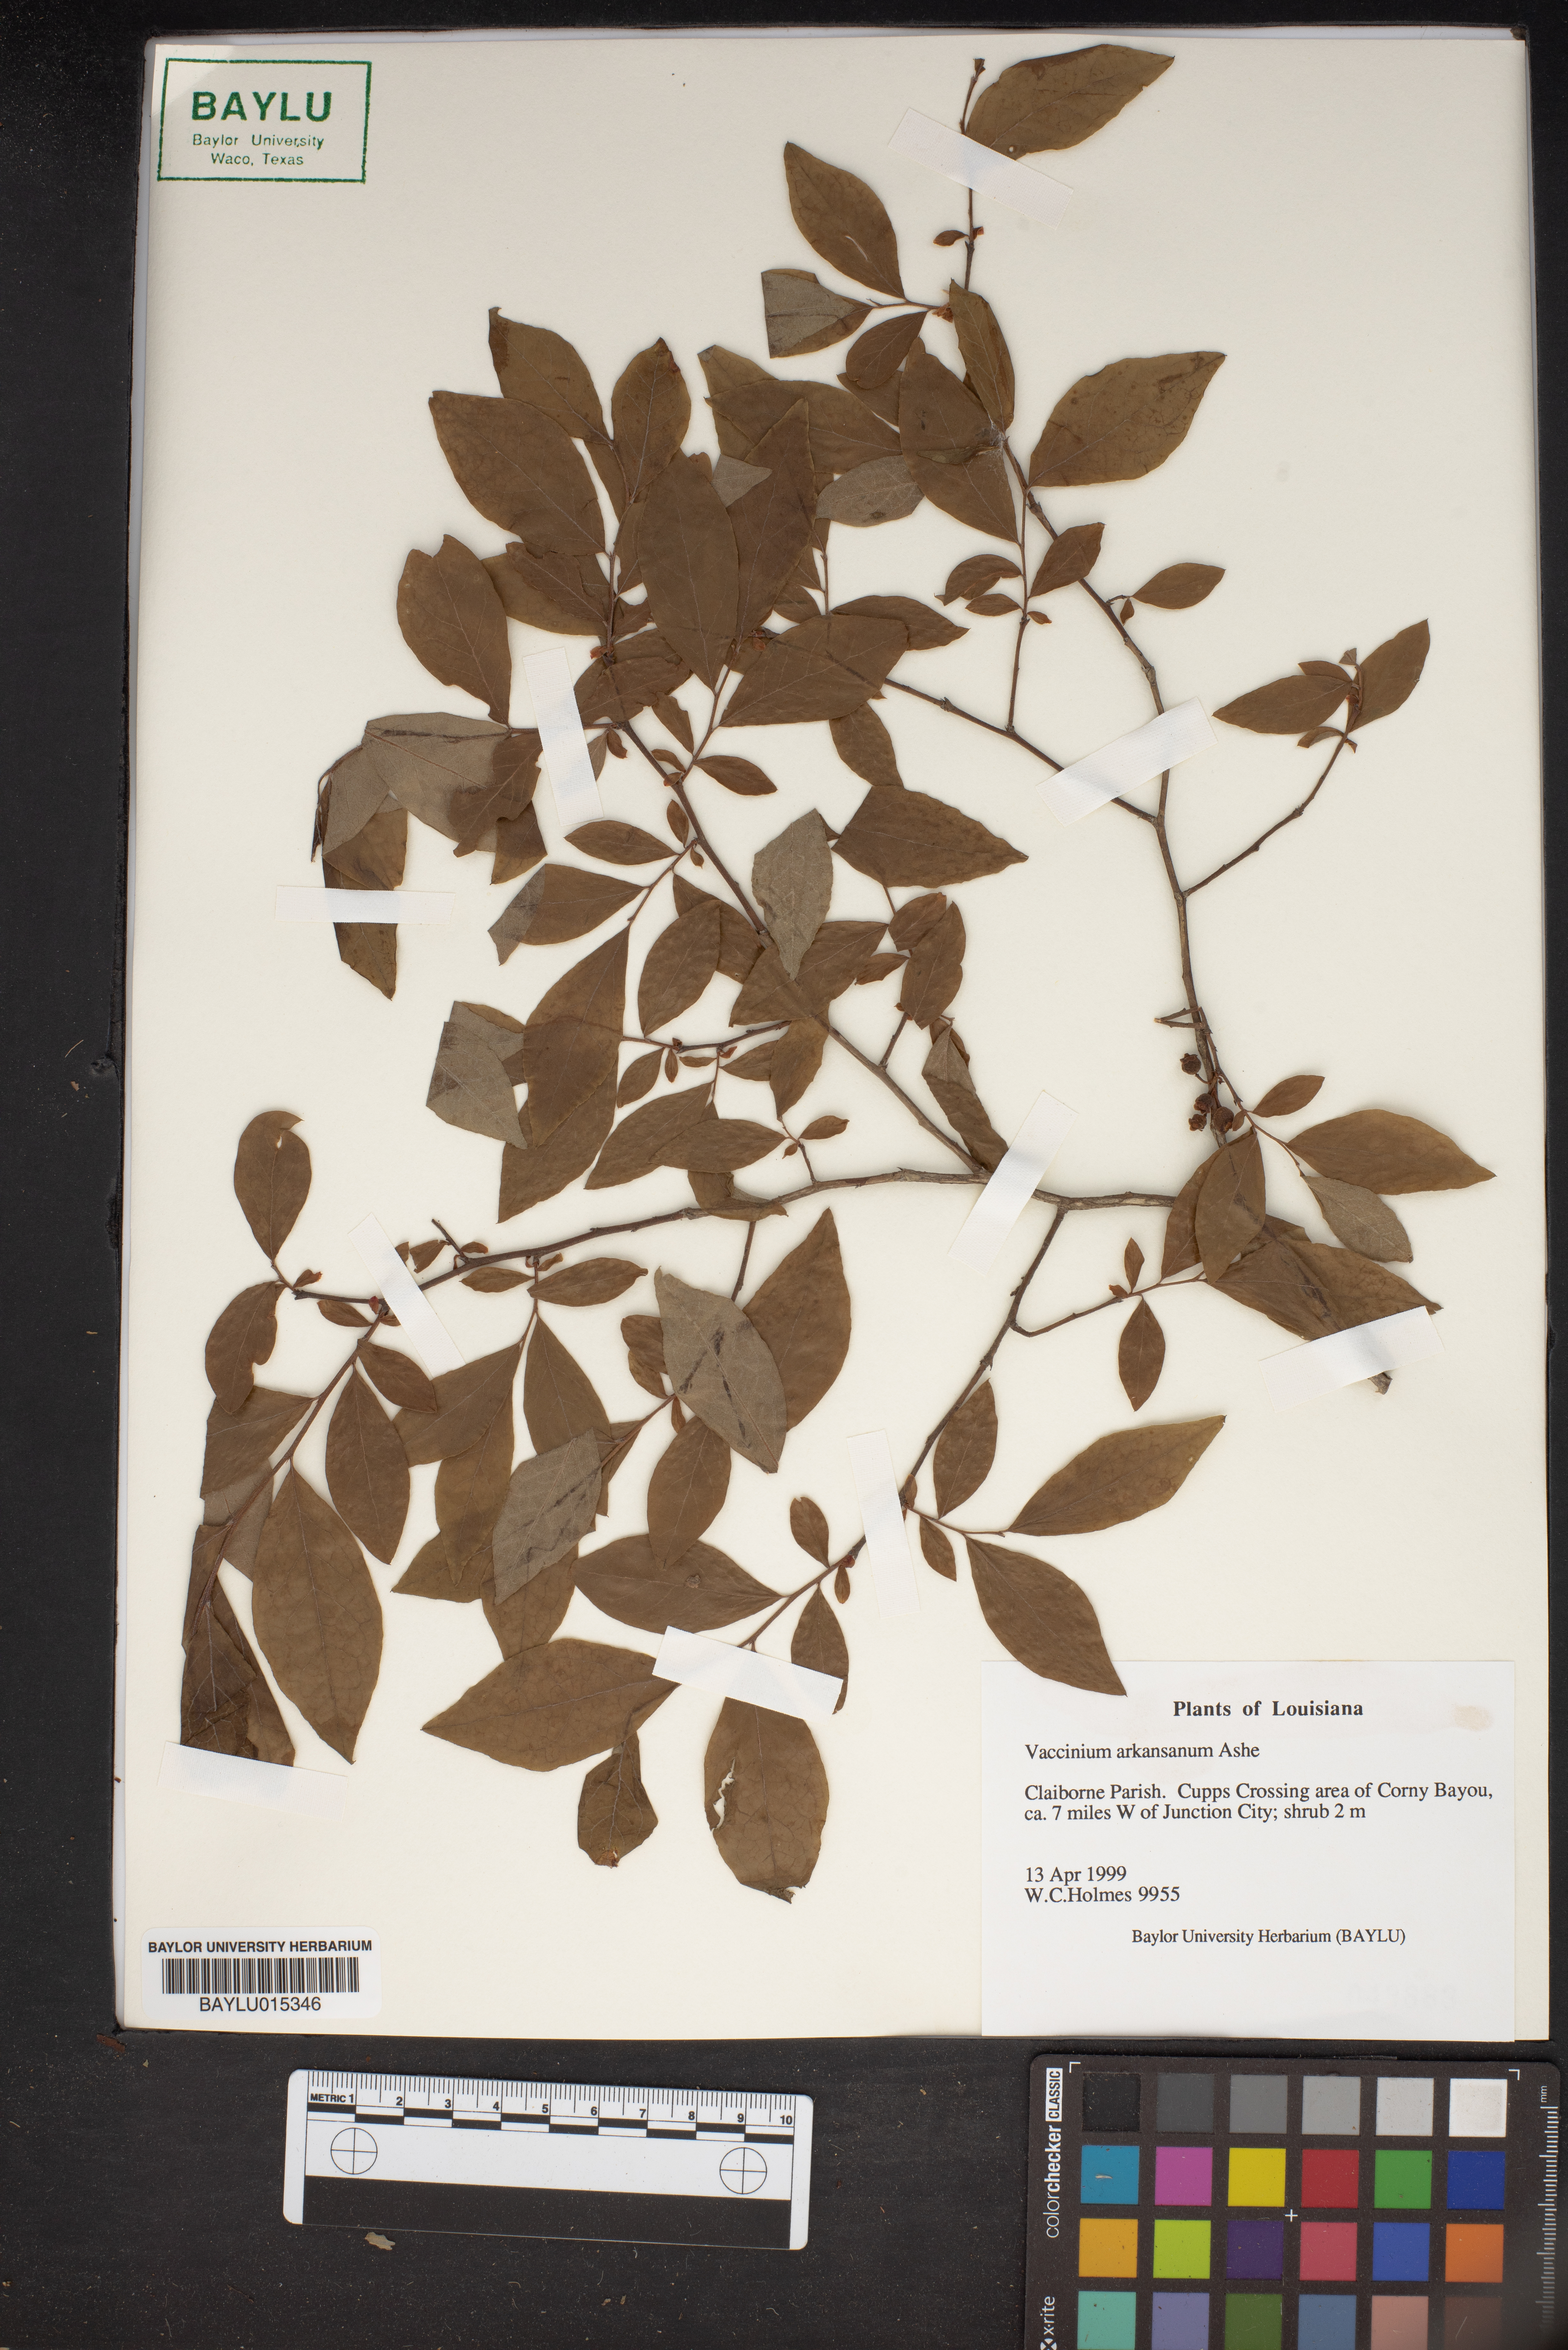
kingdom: Plantae
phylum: Tracheophyta
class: Magnoliopsida
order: Ericales
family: Ericaceae
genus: Vaccinium
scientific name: Vaccinium corymbosum
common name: Blueberry
